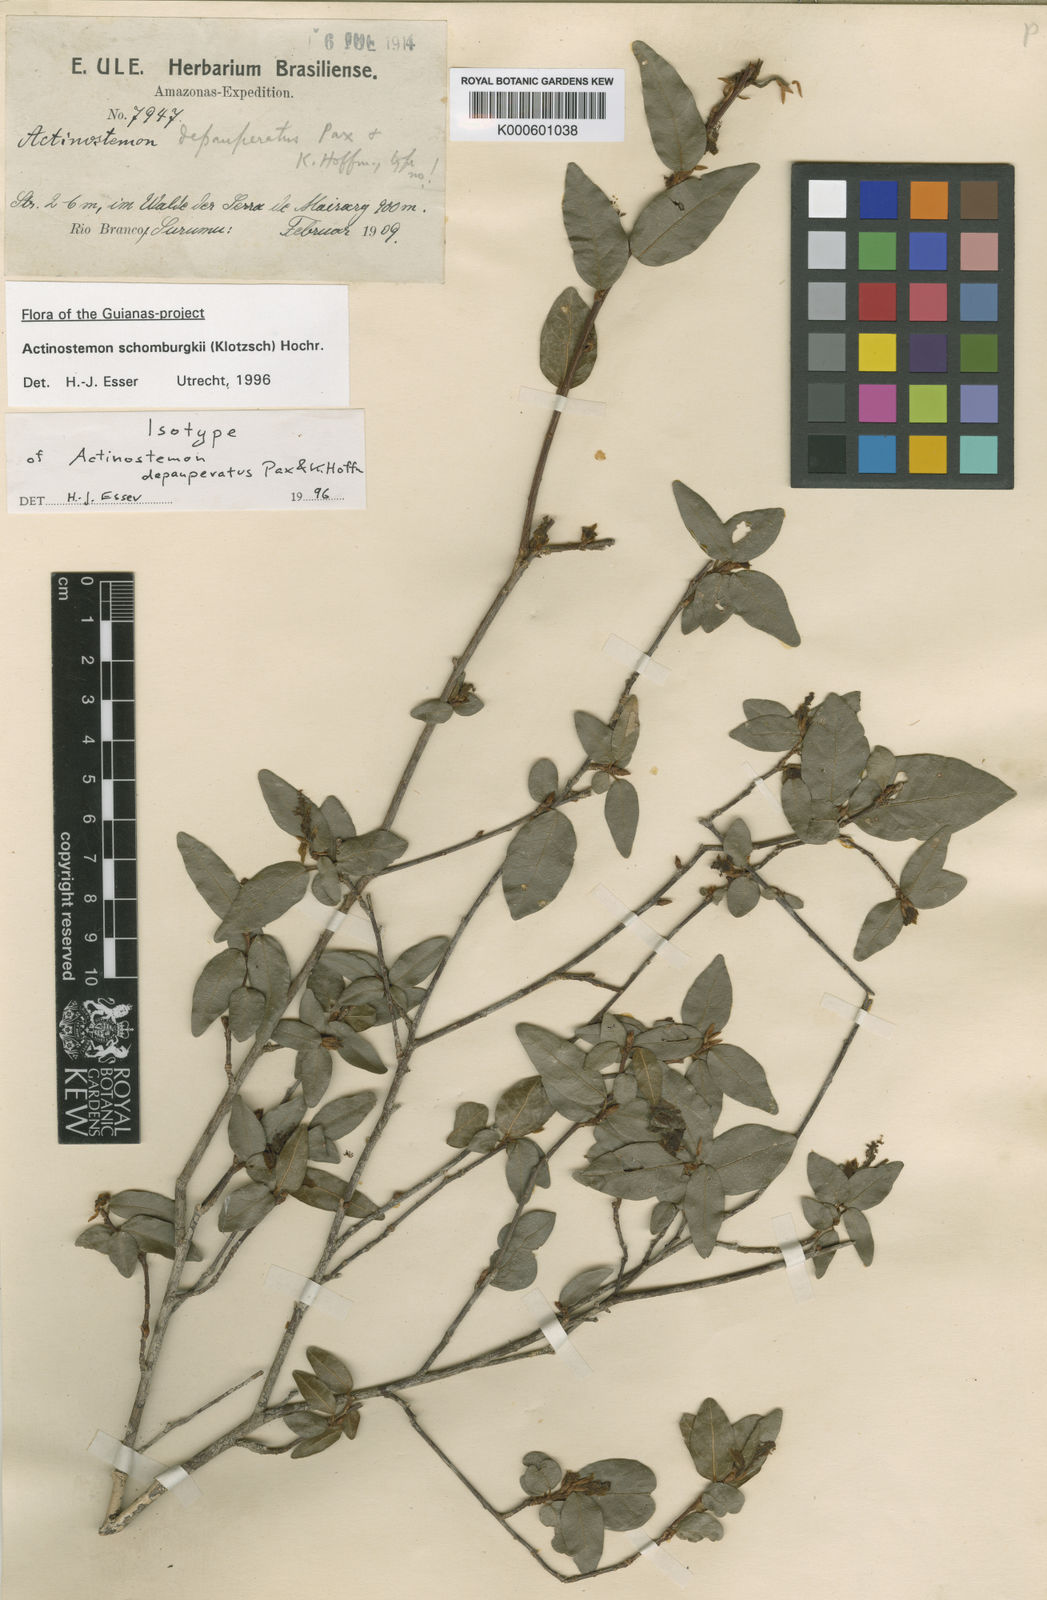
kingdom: Plantae
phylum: Tracheophyta
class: Magnoliopsida
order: Malpighiales
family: Euphorbiaceae
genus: Actinostemon
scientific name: Actinostemon schomburgkii
